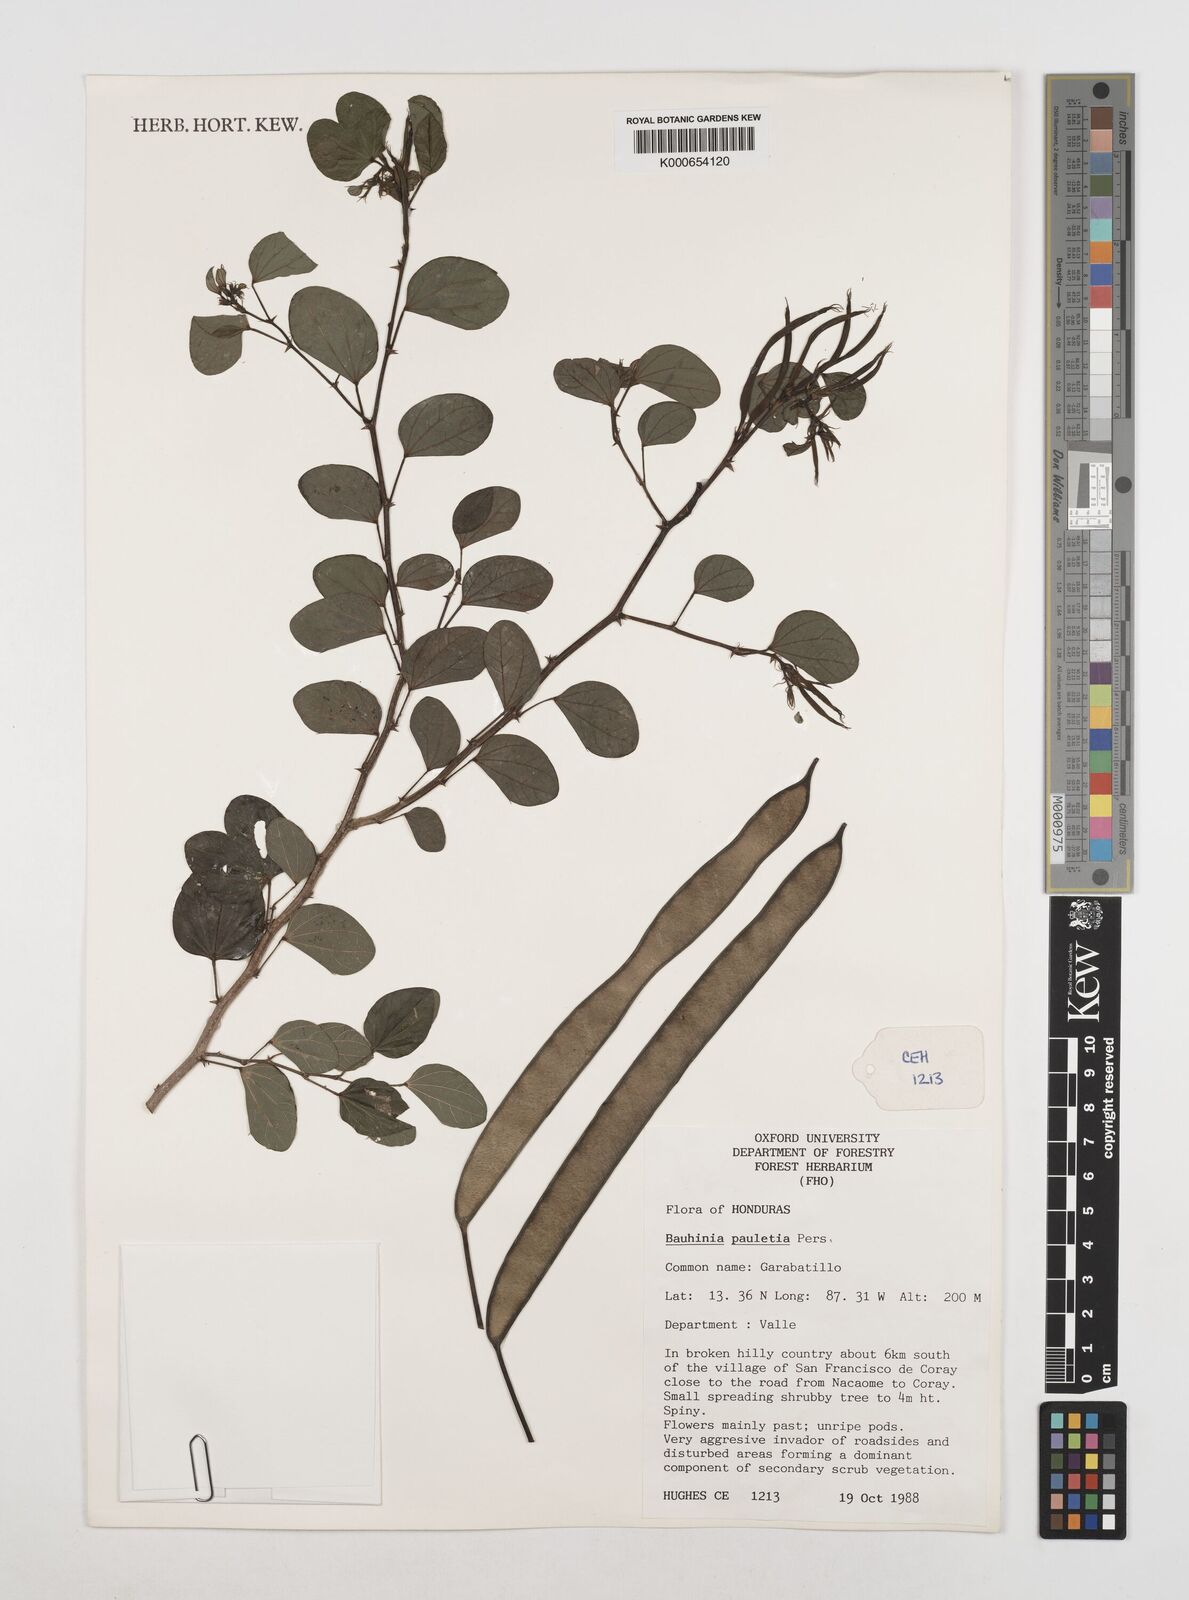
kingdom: Plantae
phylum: Tracheophyta
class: Magnoliopsida
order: Fabales
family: Fabaceae
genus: Bauhinia
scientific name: Bauhinia pauletia
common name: Railway-fence bauhinia
